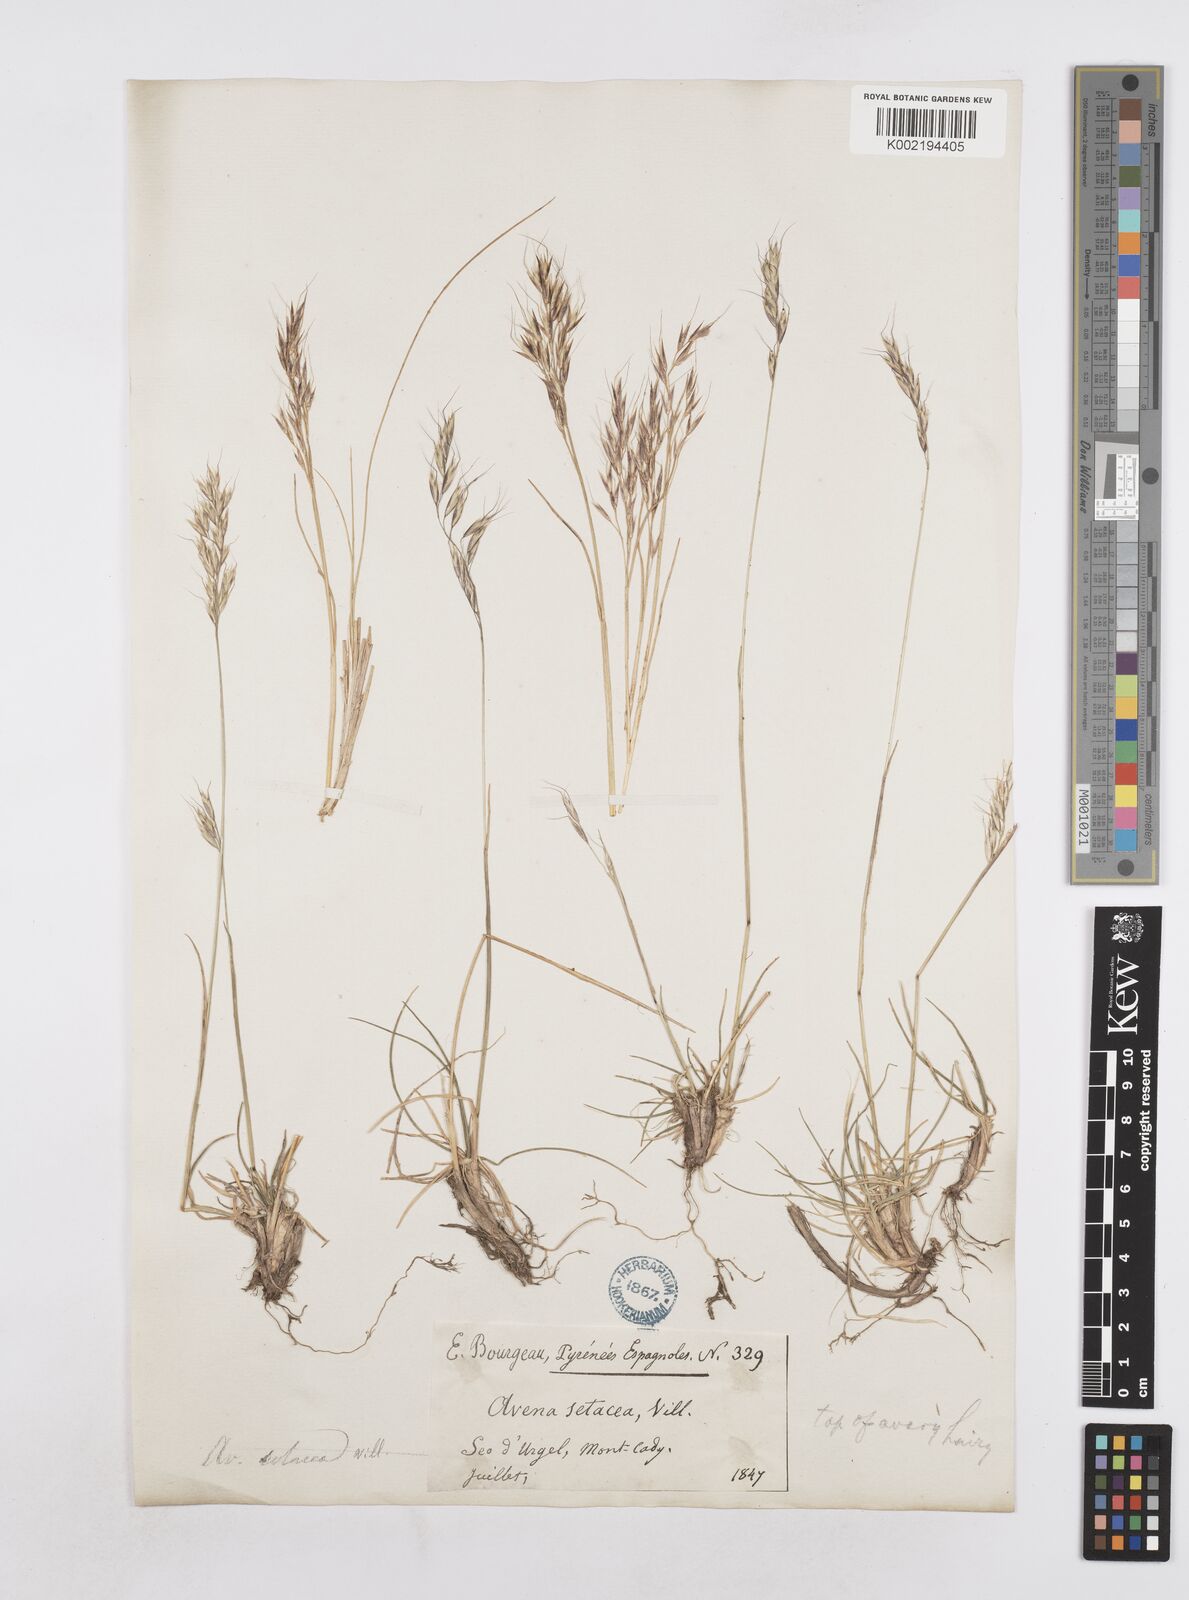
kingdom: Plantae
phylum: Tracheophyta
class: Liliopsida
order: Poales
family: Poaceae
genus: Helictotrichon
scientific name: Helictotrichon setaceum
